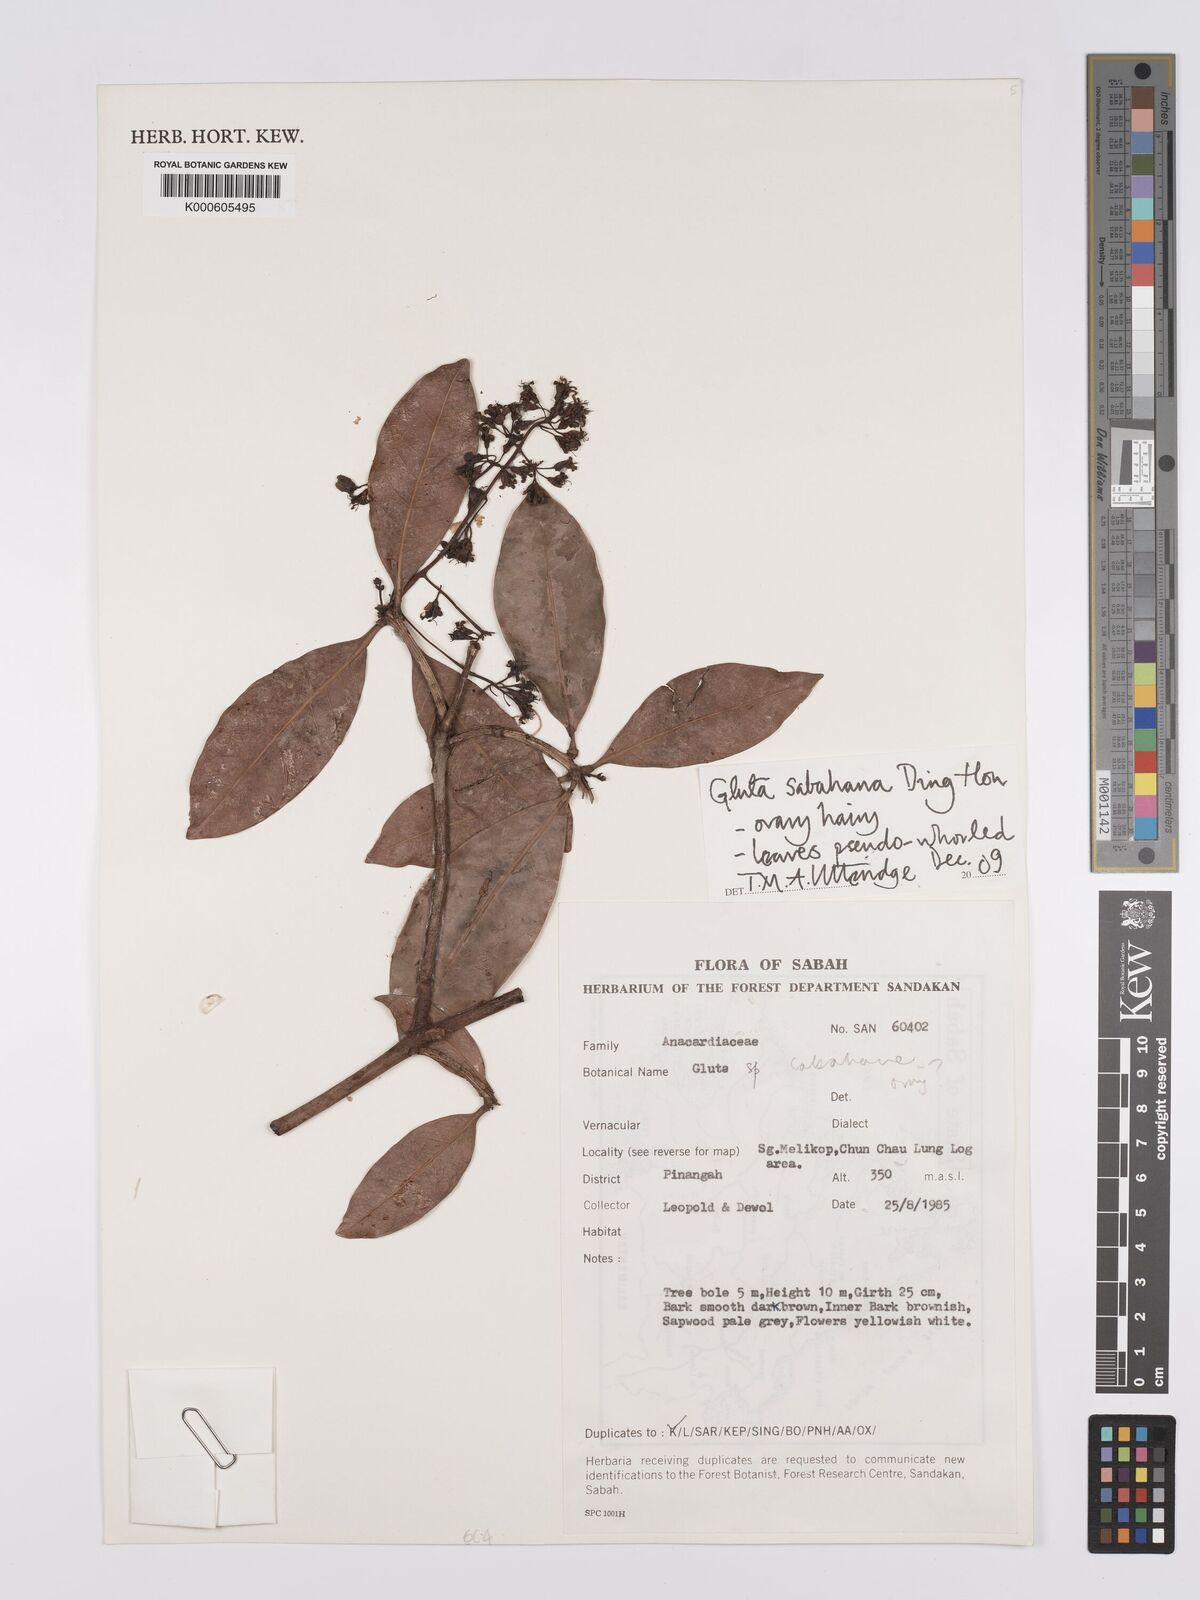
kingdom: Plantae
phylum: Tracheophyta
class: Magnoliopsida
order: Sapindales
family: Anacardiaceae
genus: Gluta
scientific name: Gluta sabahana
